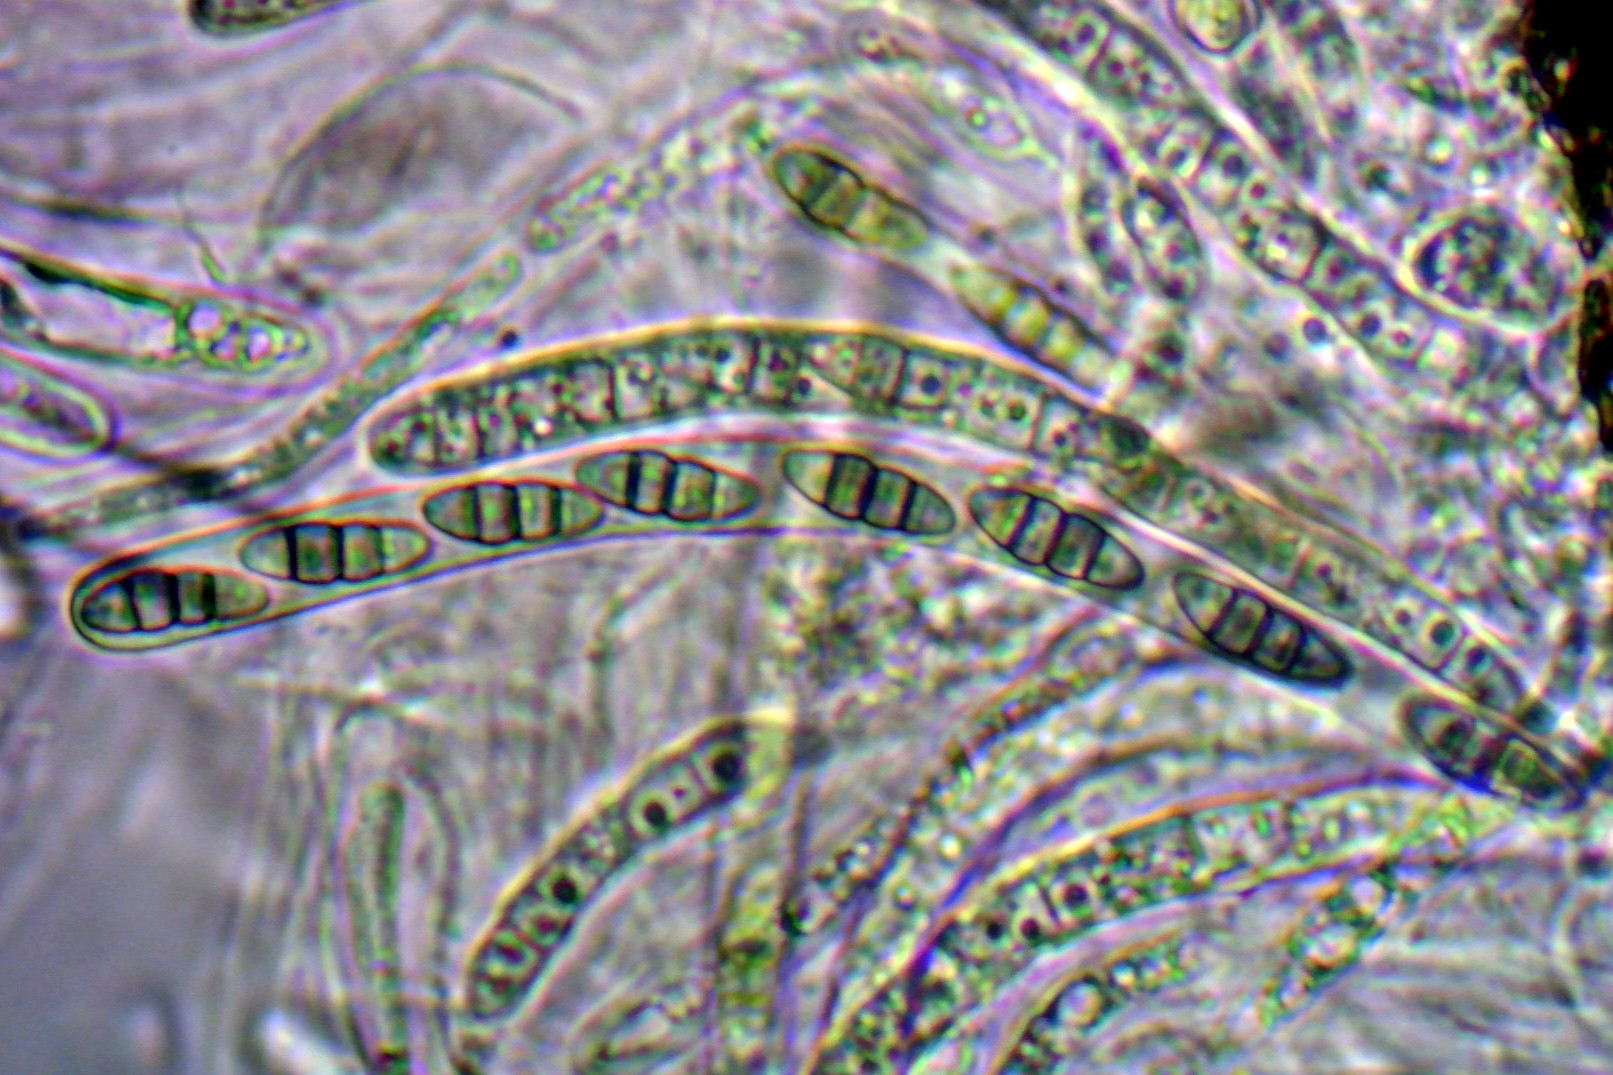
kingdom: Fungi
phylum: Ascomycota
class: Dothideomycetes
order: Pleosporales
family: Melanommataceae
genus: Melanomma
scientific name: Melanomma pulvis-pyrius
